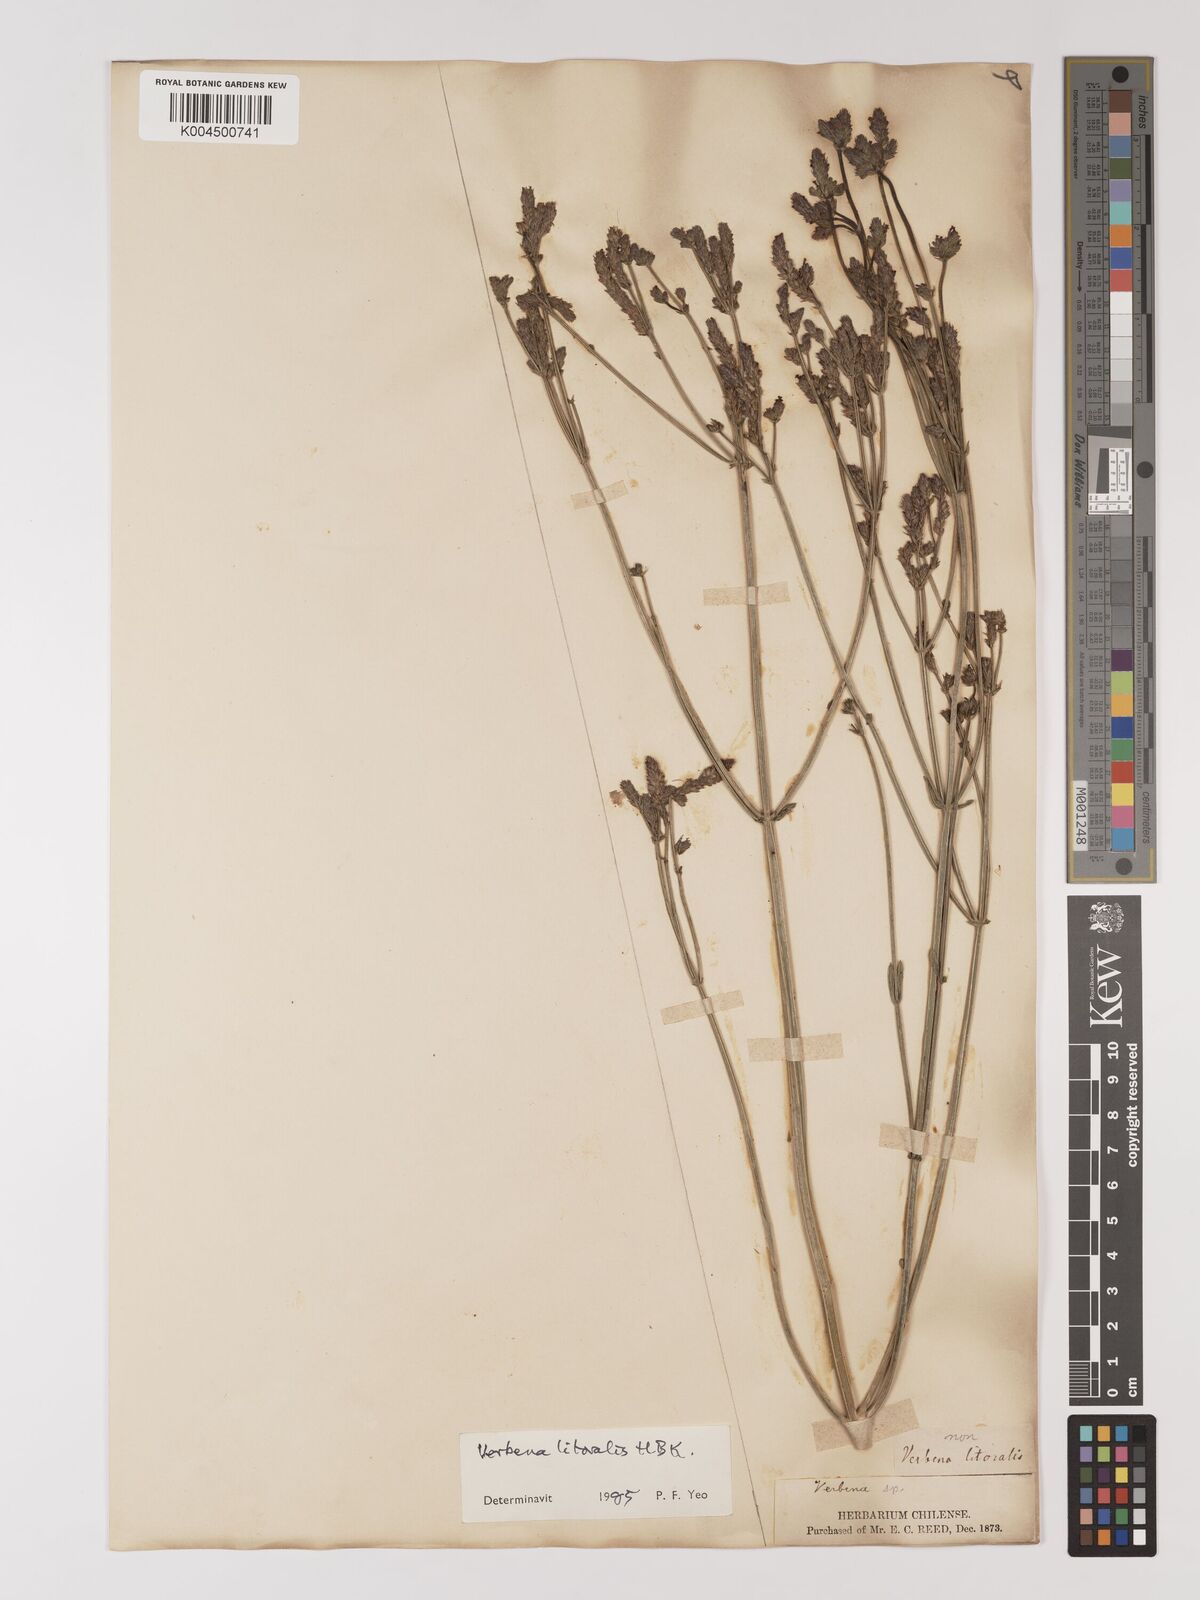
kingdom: Plantae
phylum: Tracheophyta
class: Magnoliopsida
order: Lamiales
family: Verbenaceae
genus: Verbena
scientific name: Verbena litoralis
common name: Seashore vervain
